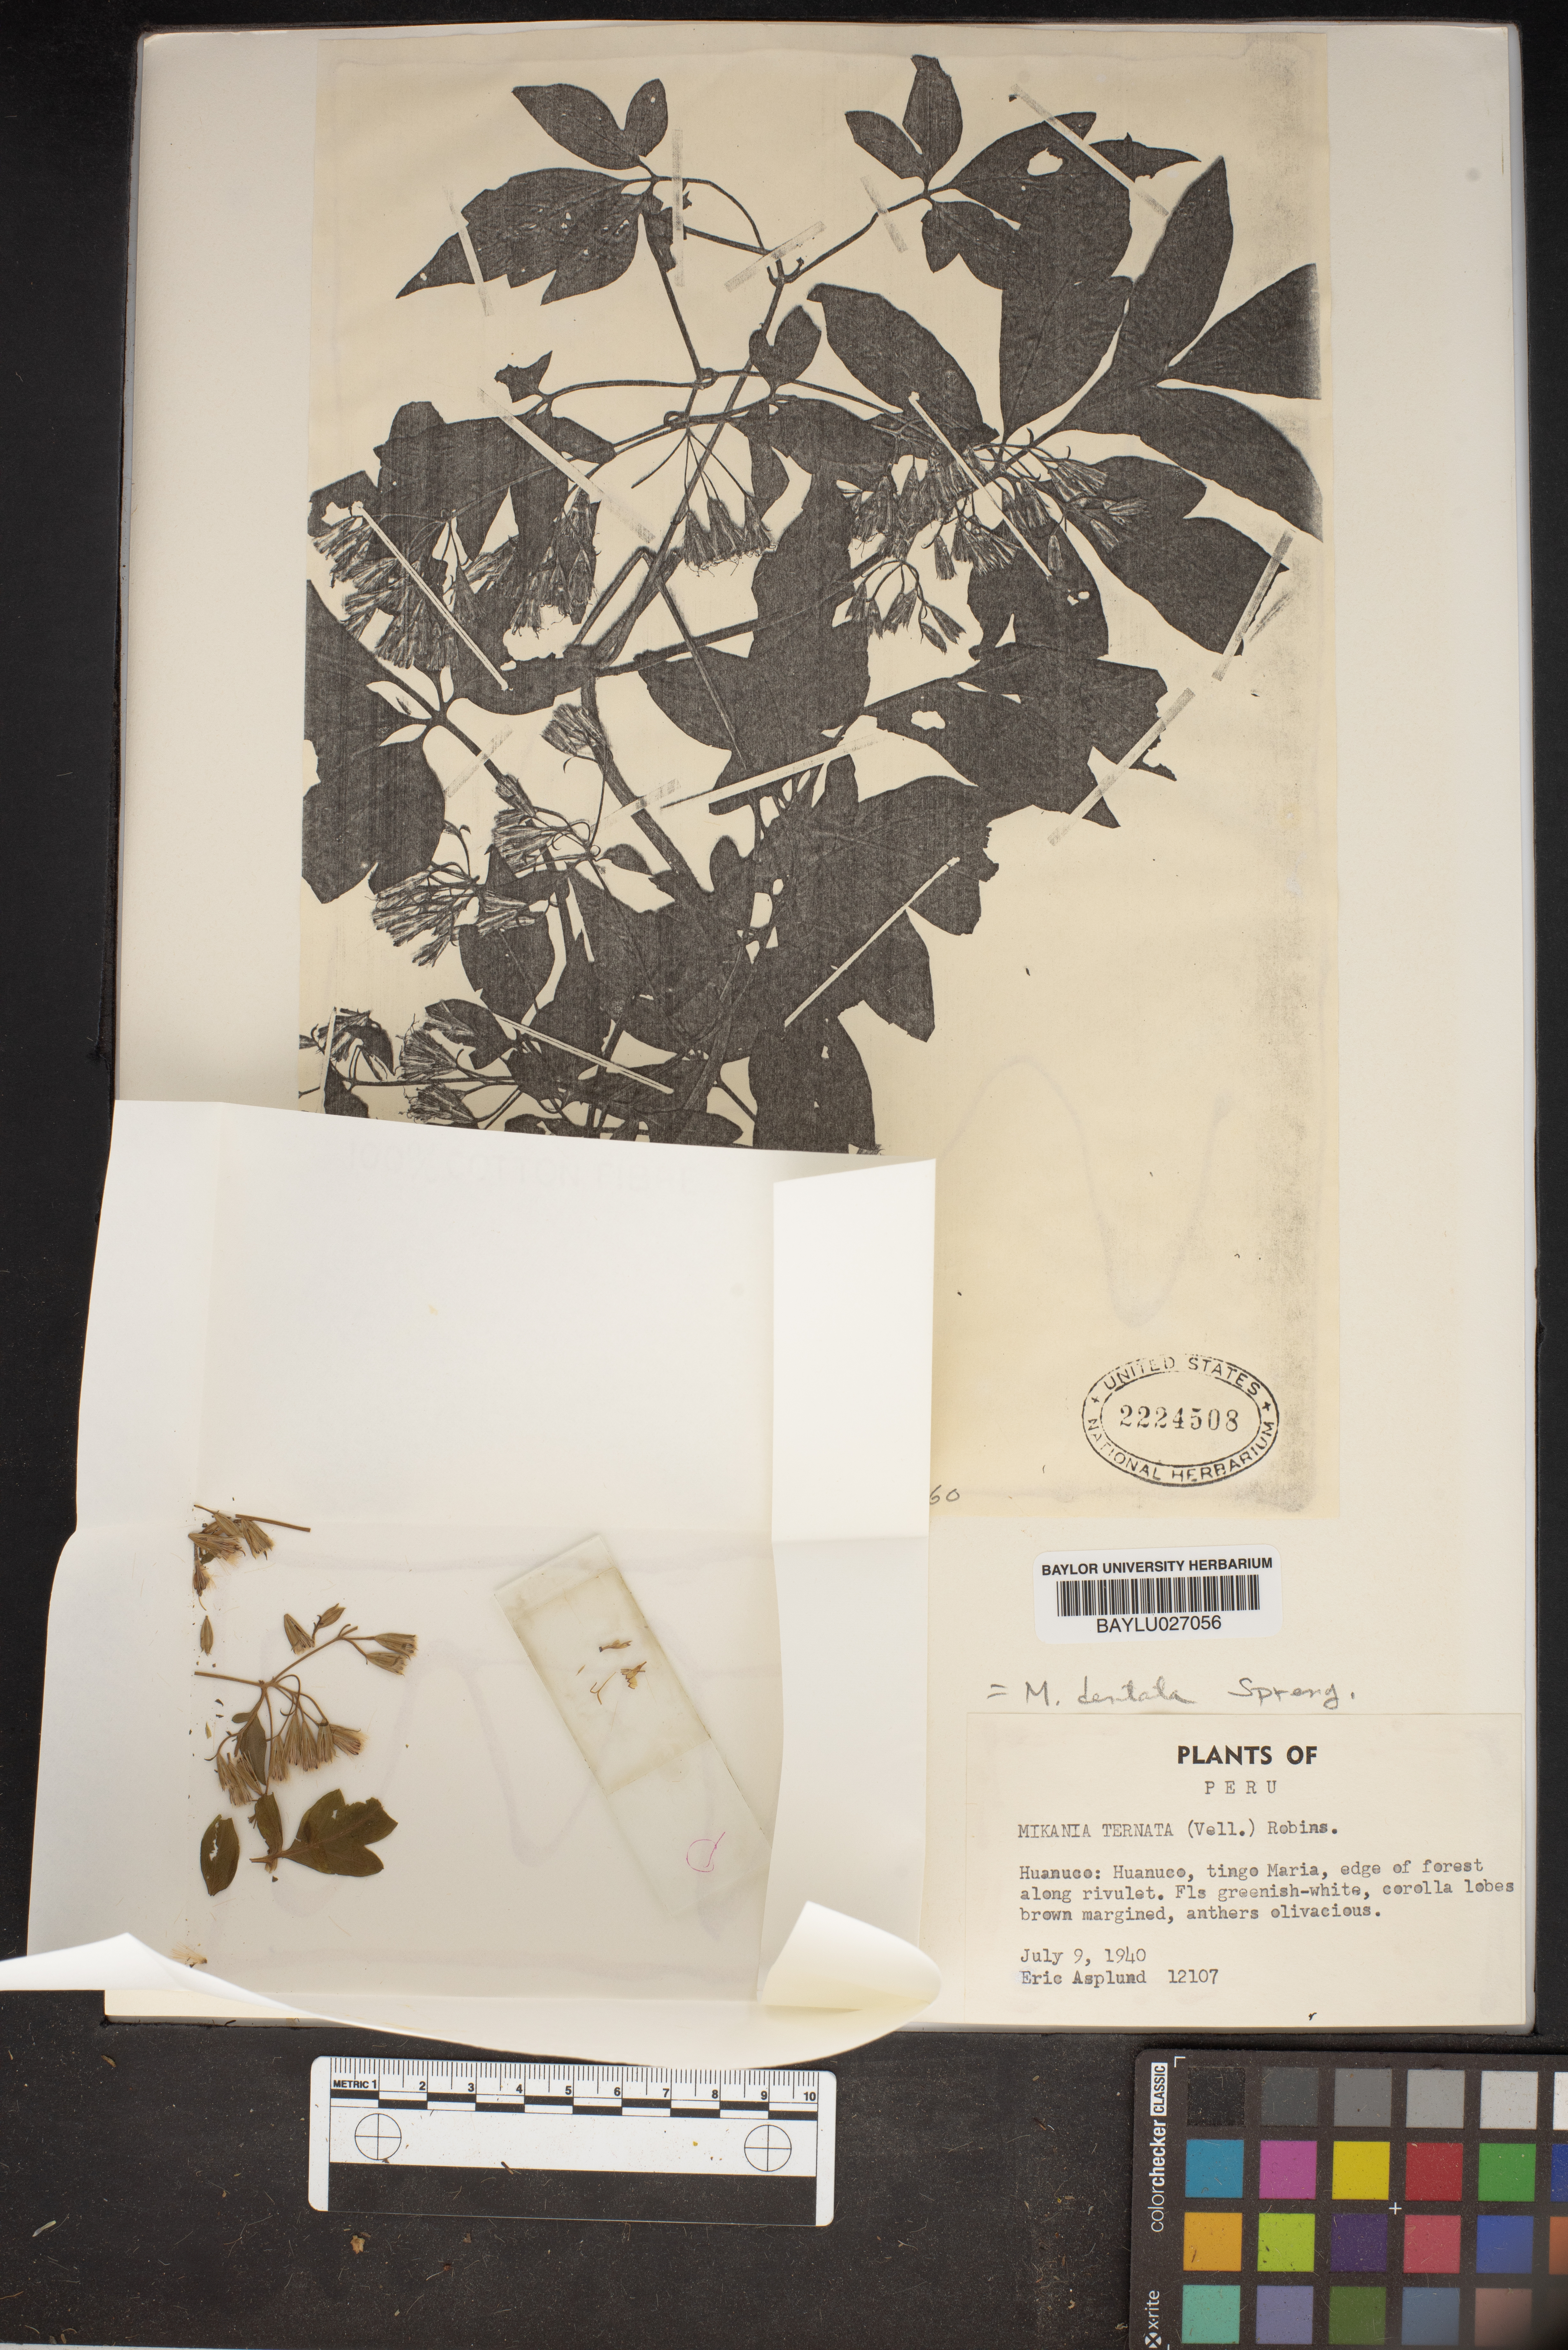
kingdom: Plantae
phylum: Tracheophyta
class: Magnoliopsida
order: Asterales
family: Asteraceae
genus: Mikania
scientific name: Mikania ternata
